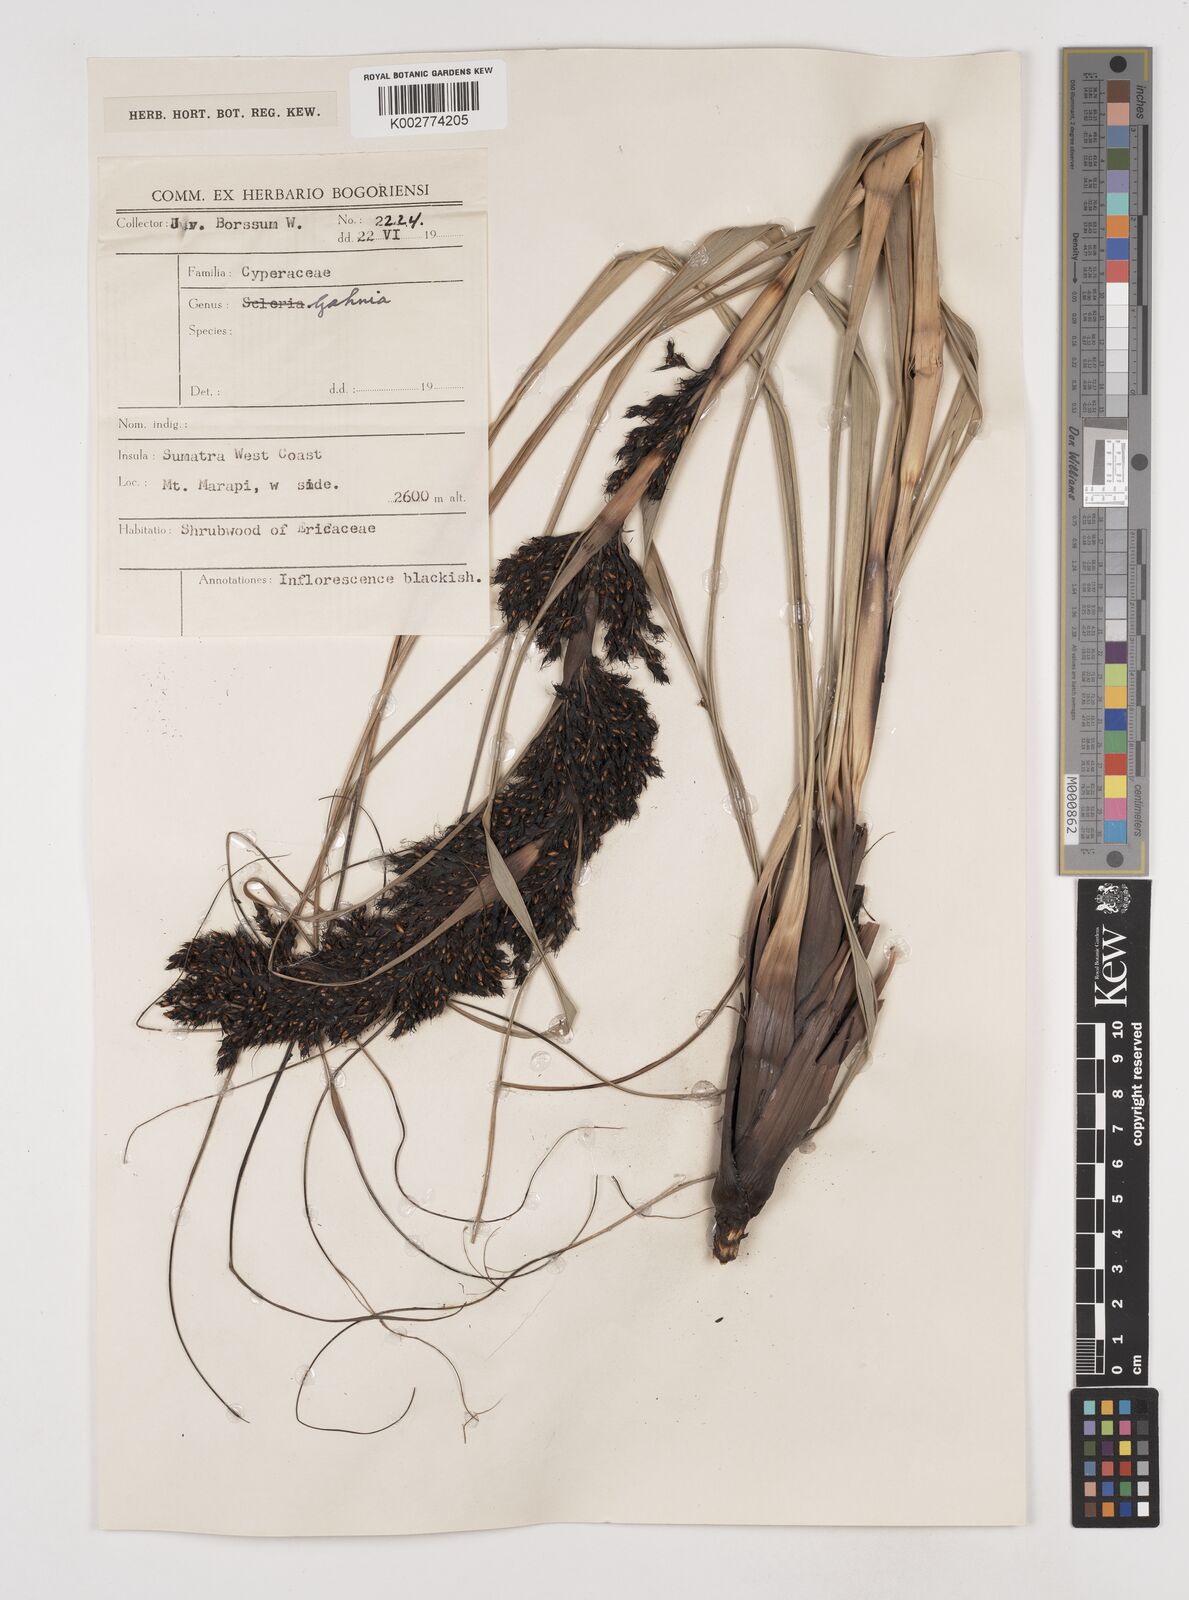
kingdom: Plantae
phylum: Tracheophyta
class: Liliopsida
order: Poales
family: Cyperaceae
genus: Gahnia
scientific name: Gahnia
